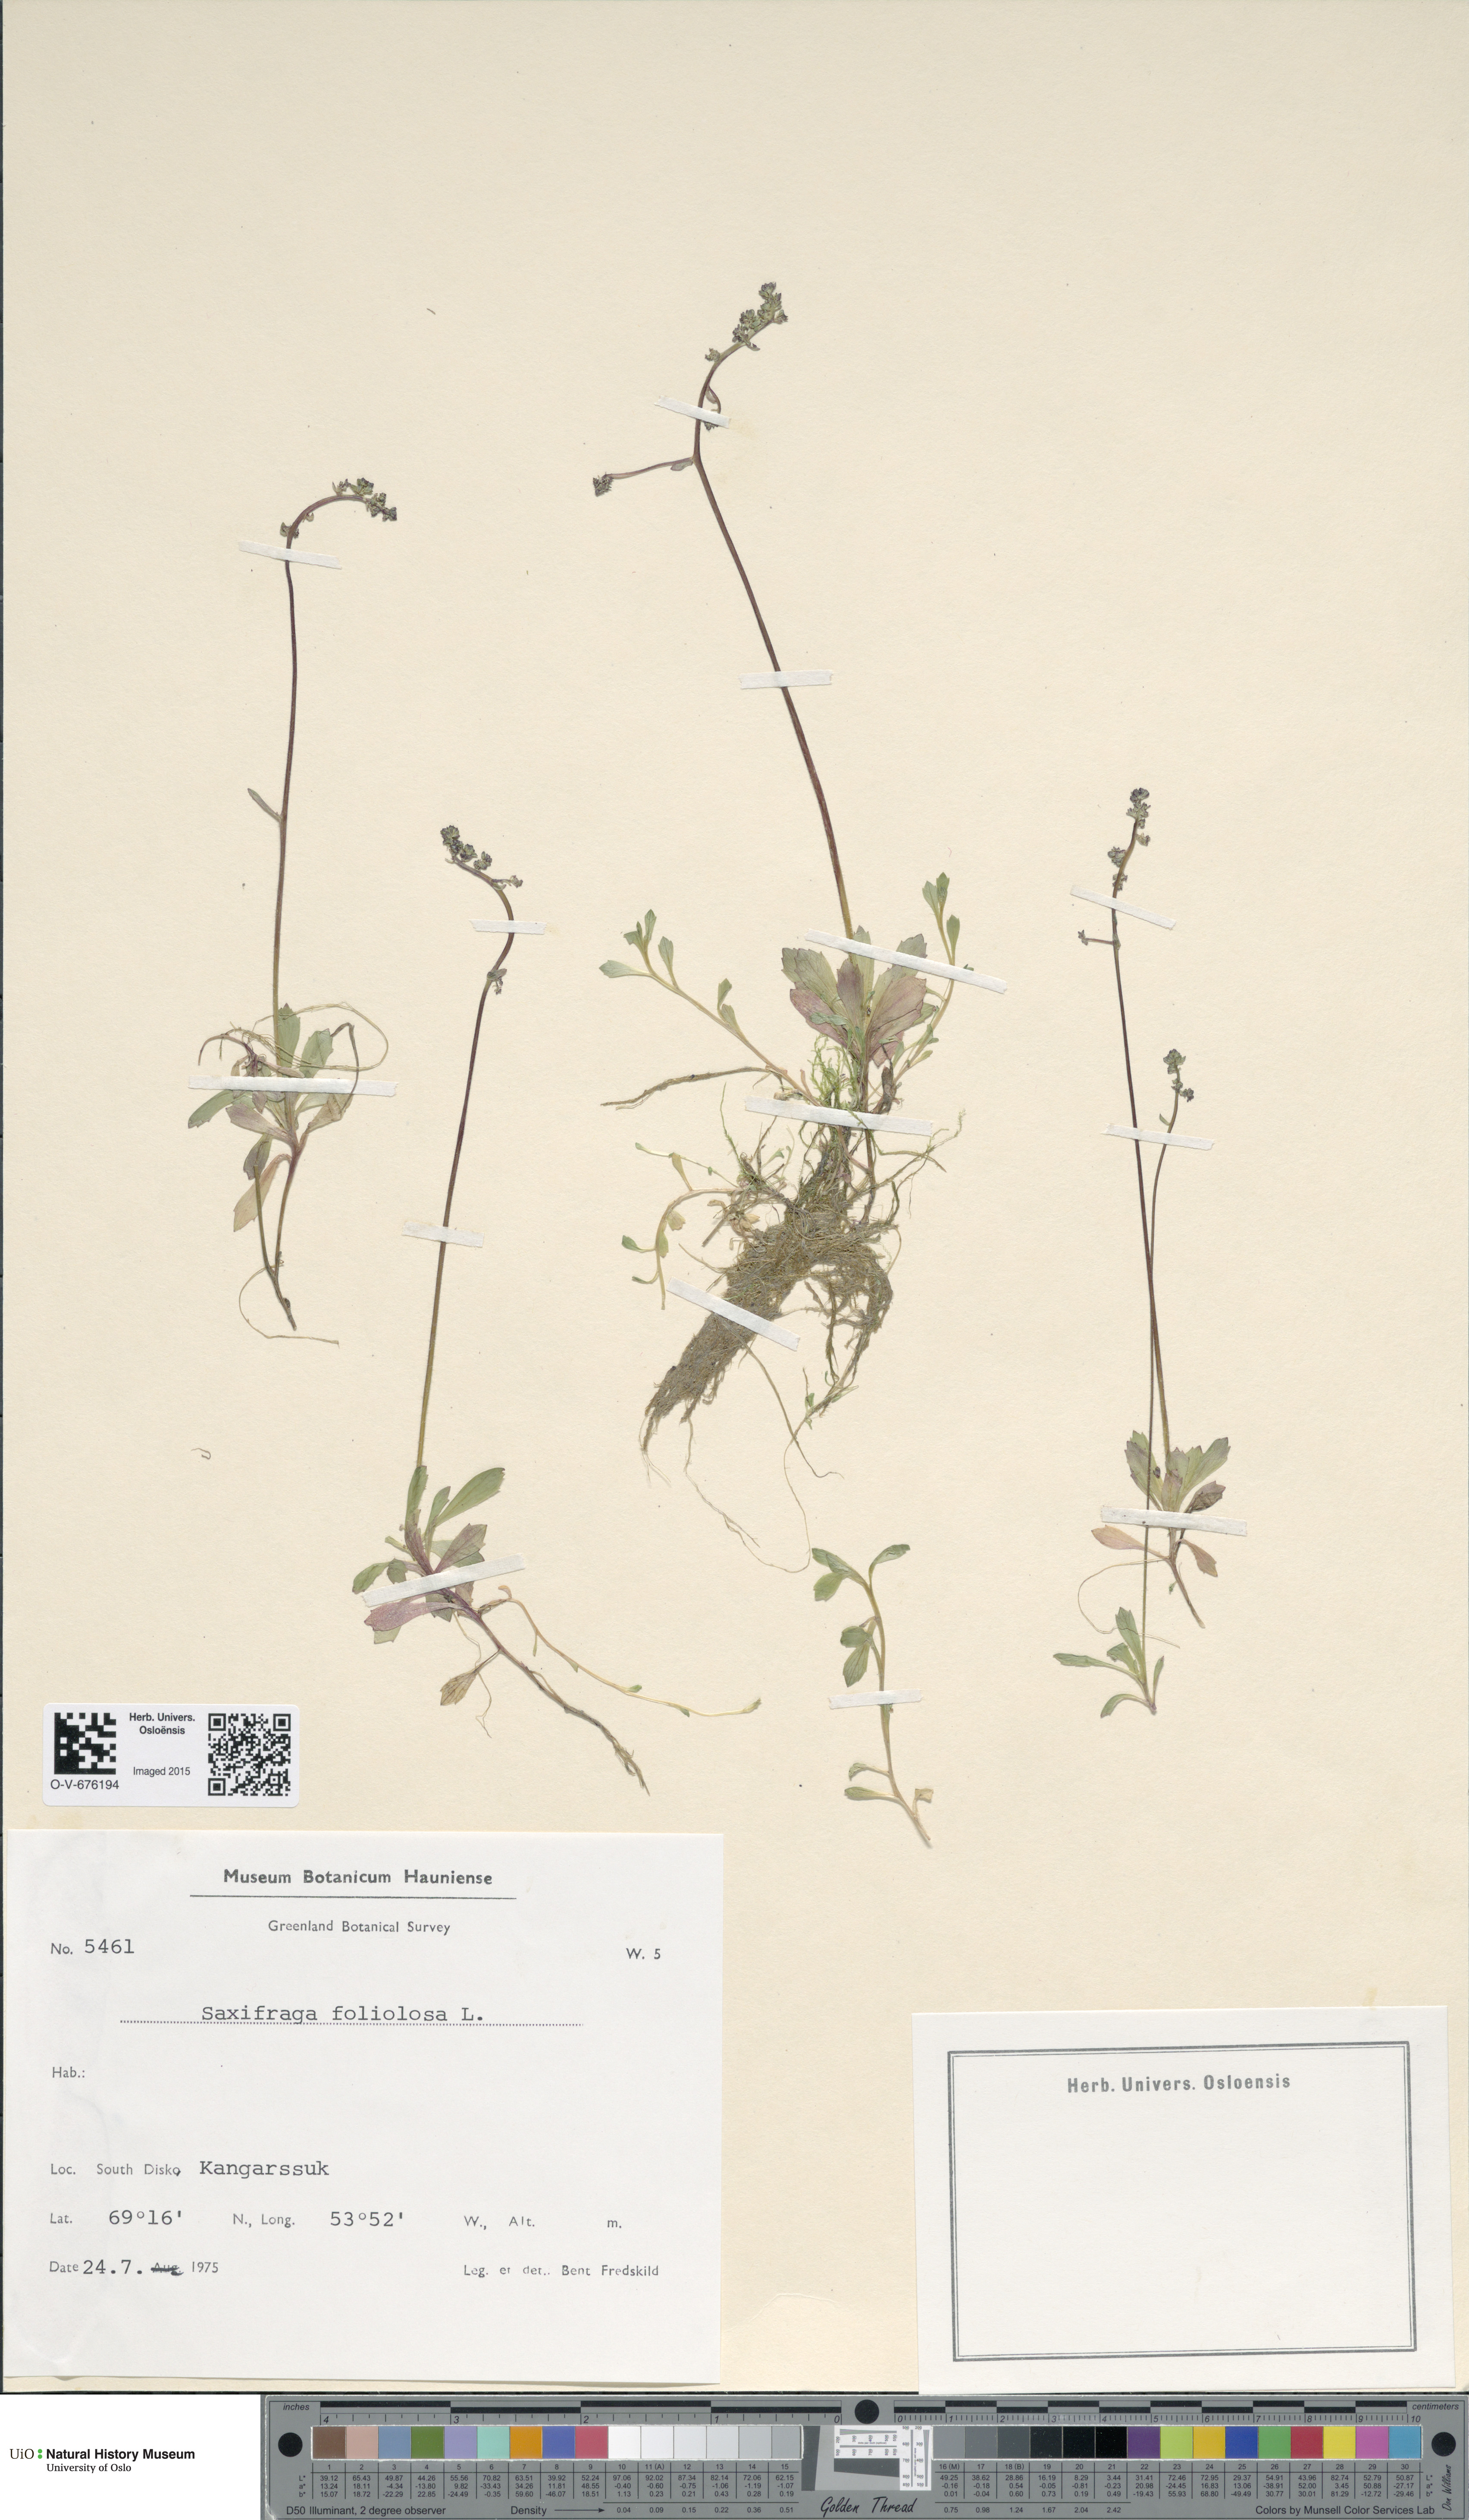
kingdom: Plantae
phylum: Tracheophyta
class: Magnoliopsida
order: Saxifragales
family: Saxifragaceae
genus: Micranthes
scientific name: Micranthes foliolosa
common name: Leafystem saxifrage
